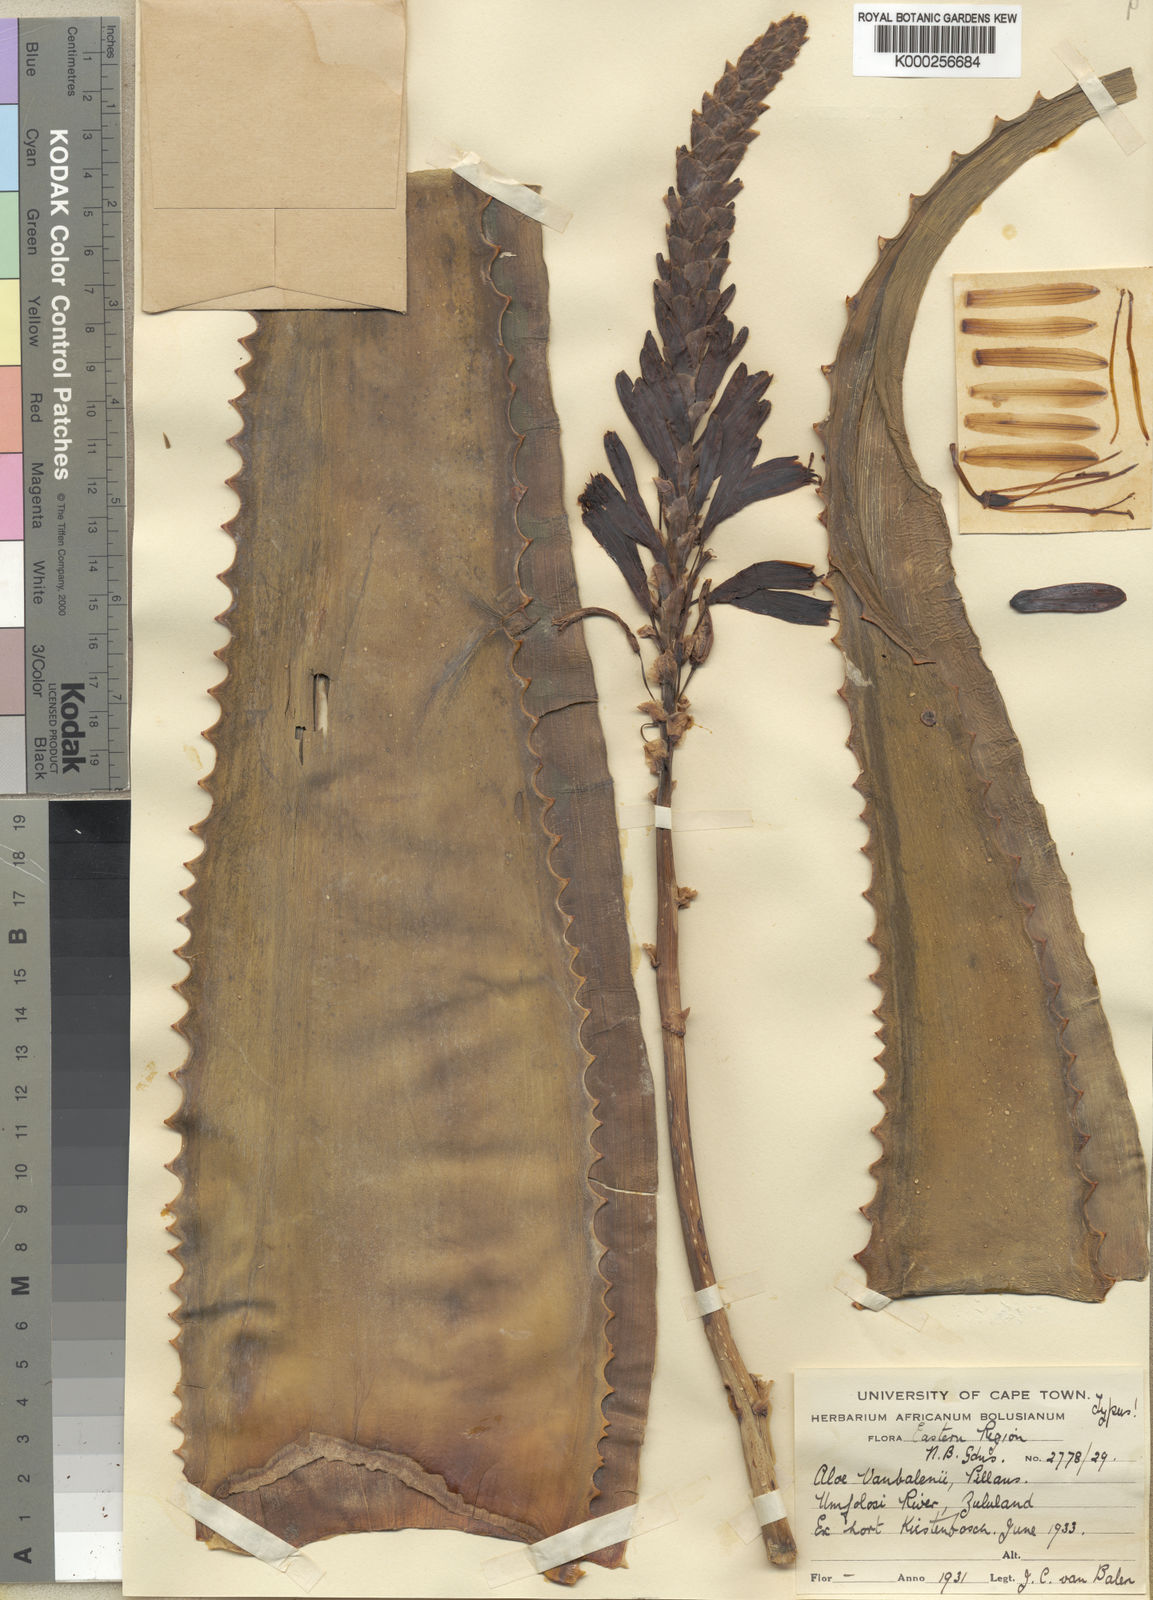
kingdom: Plantae
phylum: Tracheophyta
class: Liliopsida
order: Asparagales
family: Asphodelaceae
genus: Aloe
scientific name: Aloe vanbalenii
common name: Van balen's aloe
